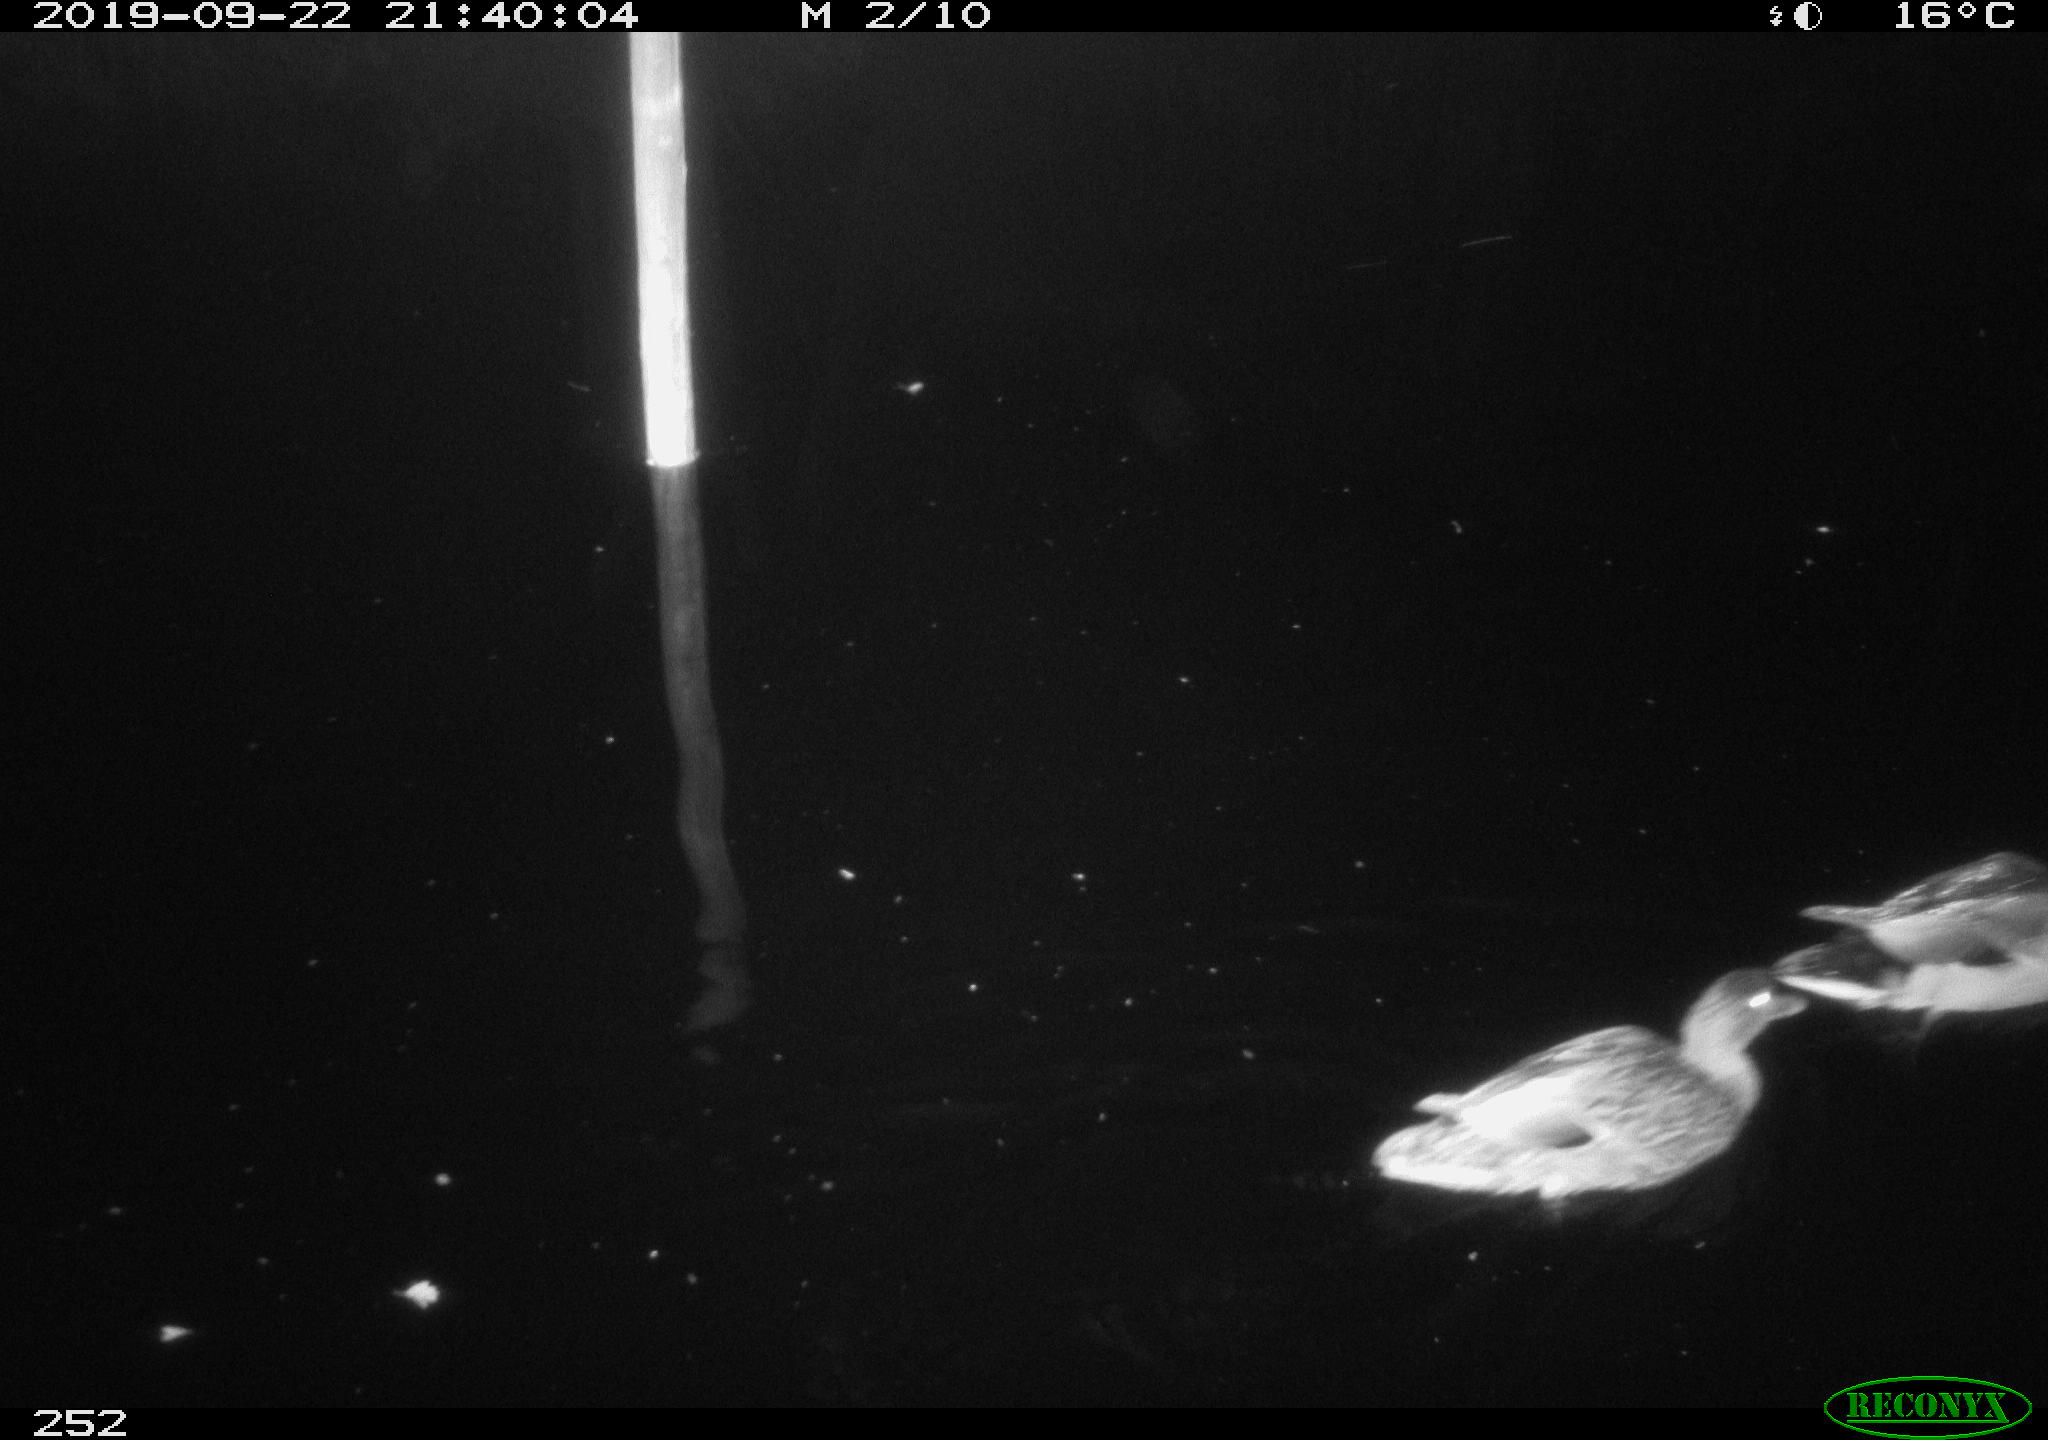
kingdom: Animalia
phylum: Chordata
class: Aves
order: Anseriformes
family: Anatidae
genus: Anas
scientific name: Anas platyrhynchos
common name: Mallard
